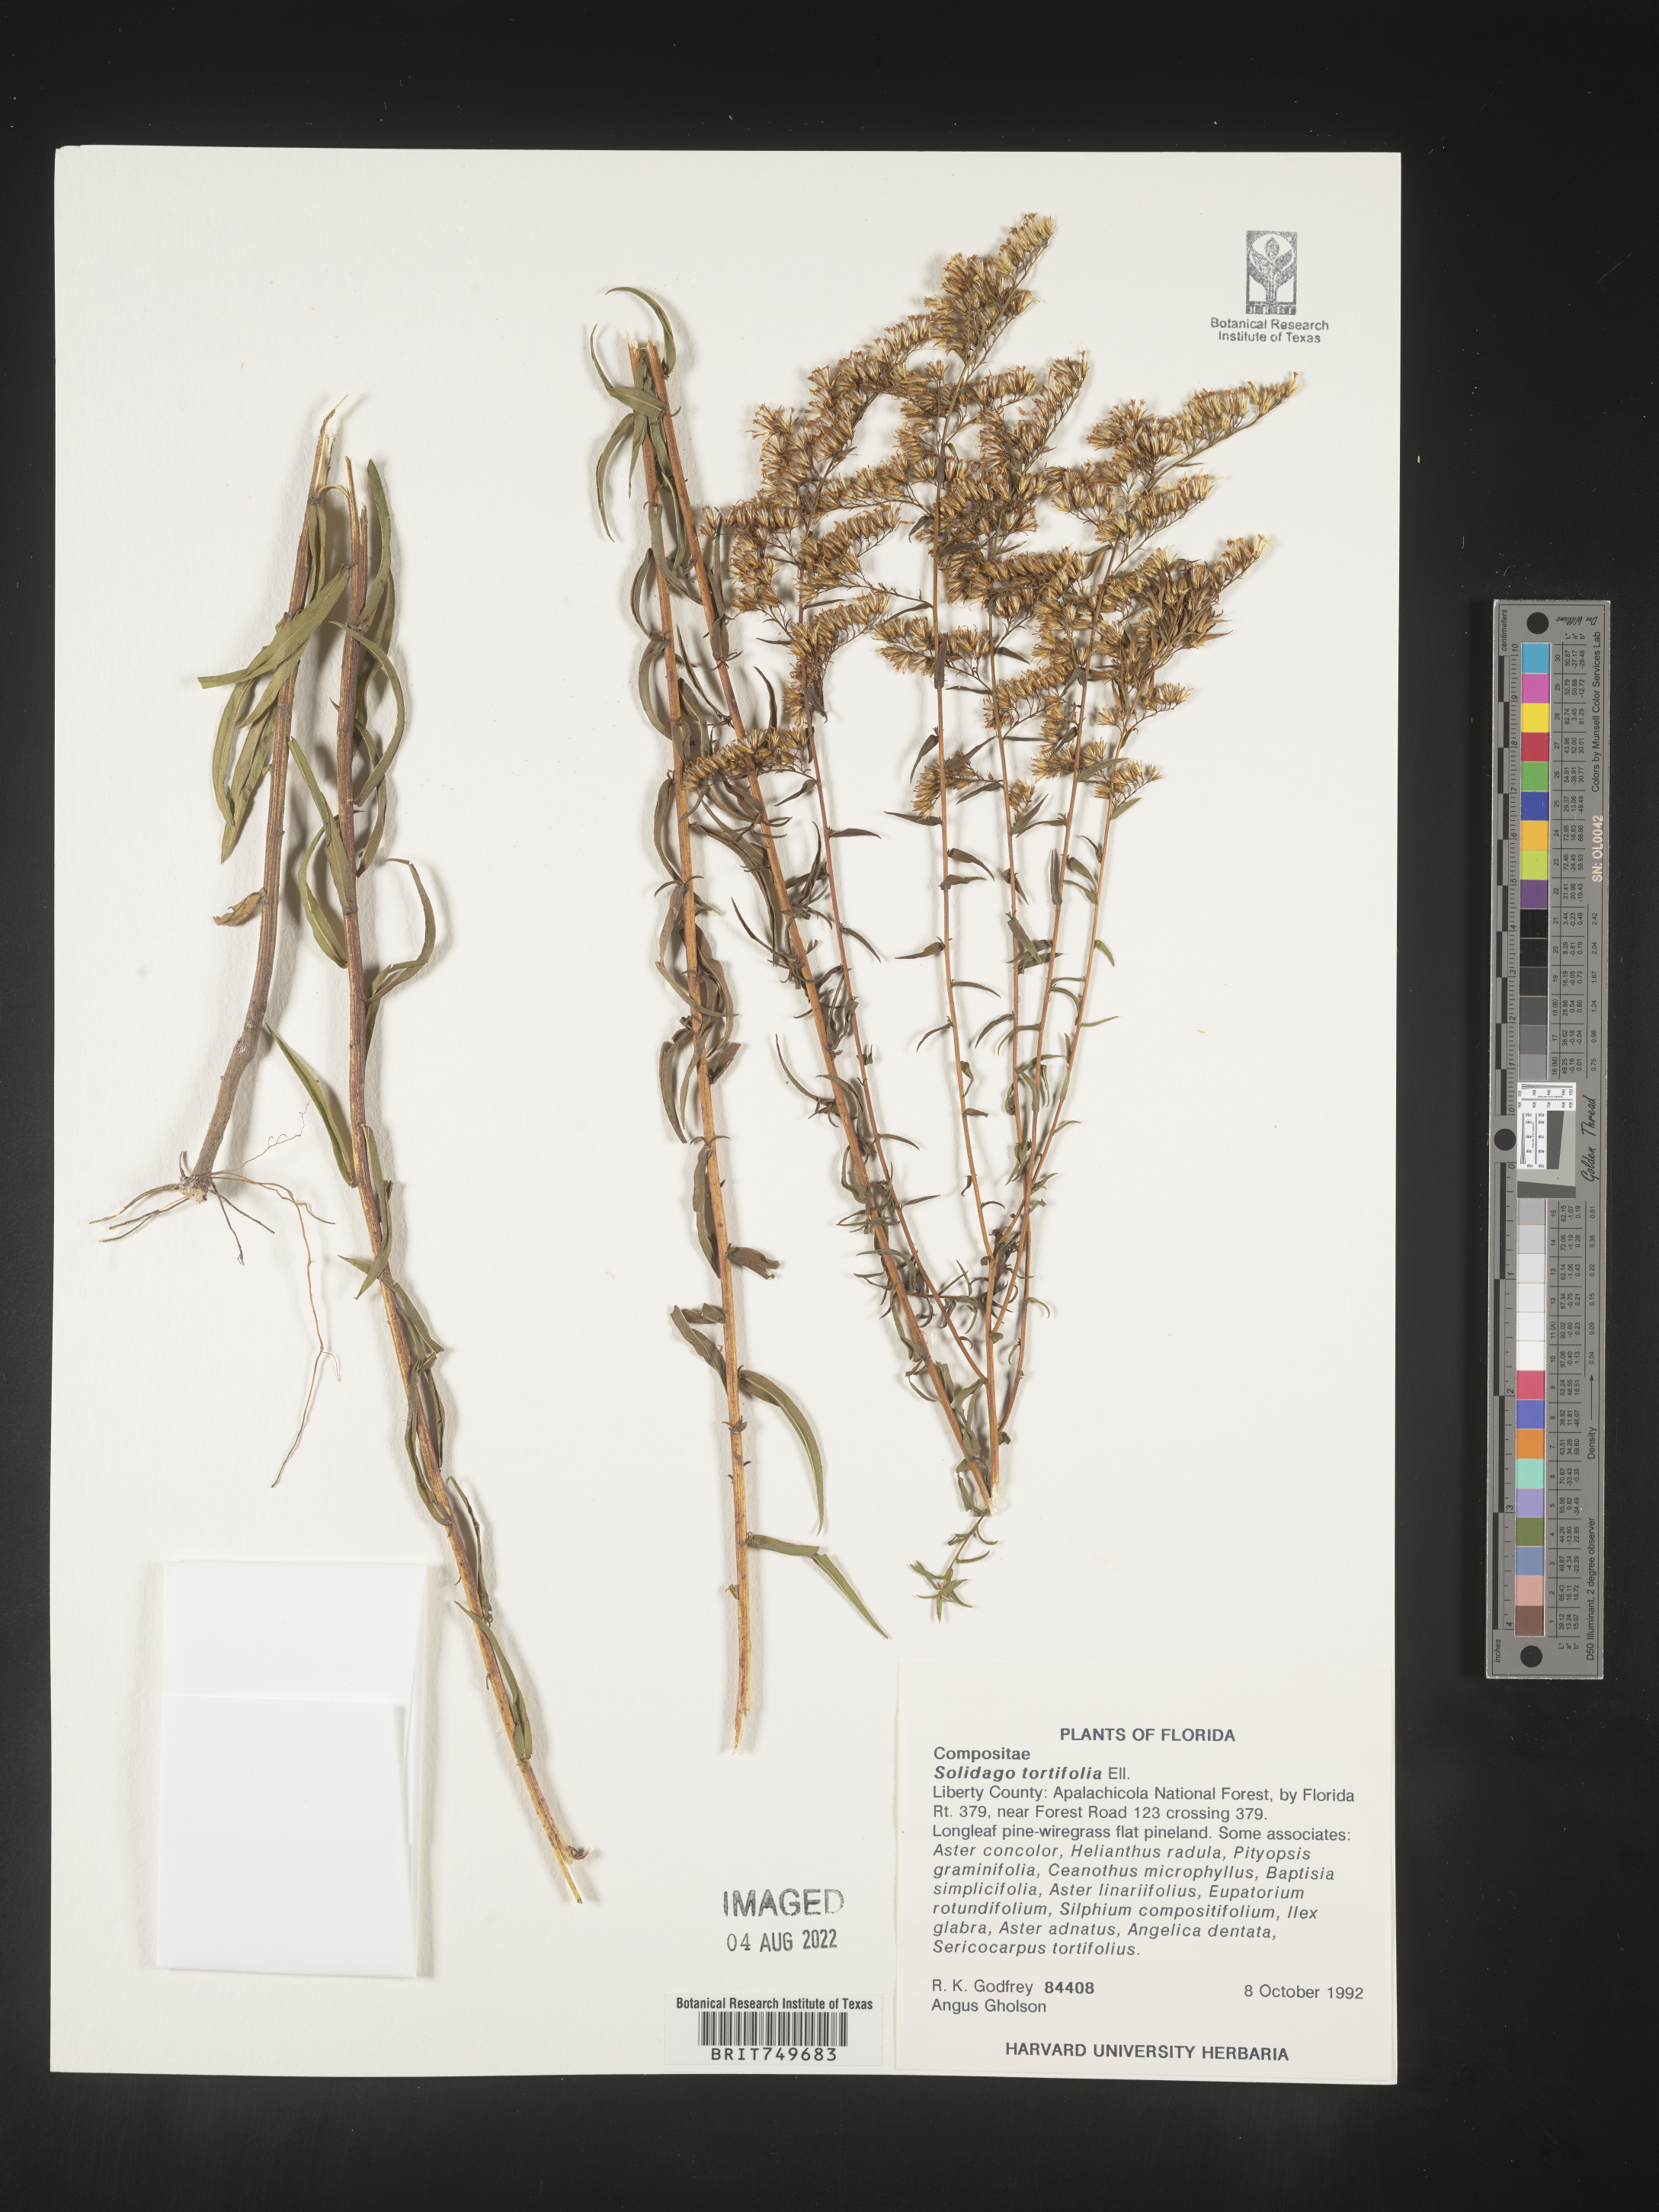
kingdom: Plantae
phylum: Tracheophyta
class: Magnoliopsida
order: Asterales
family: Asteraceae
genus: Solidago
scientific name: Solidago tortifolia
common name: Twisted-leaf goldenrod
